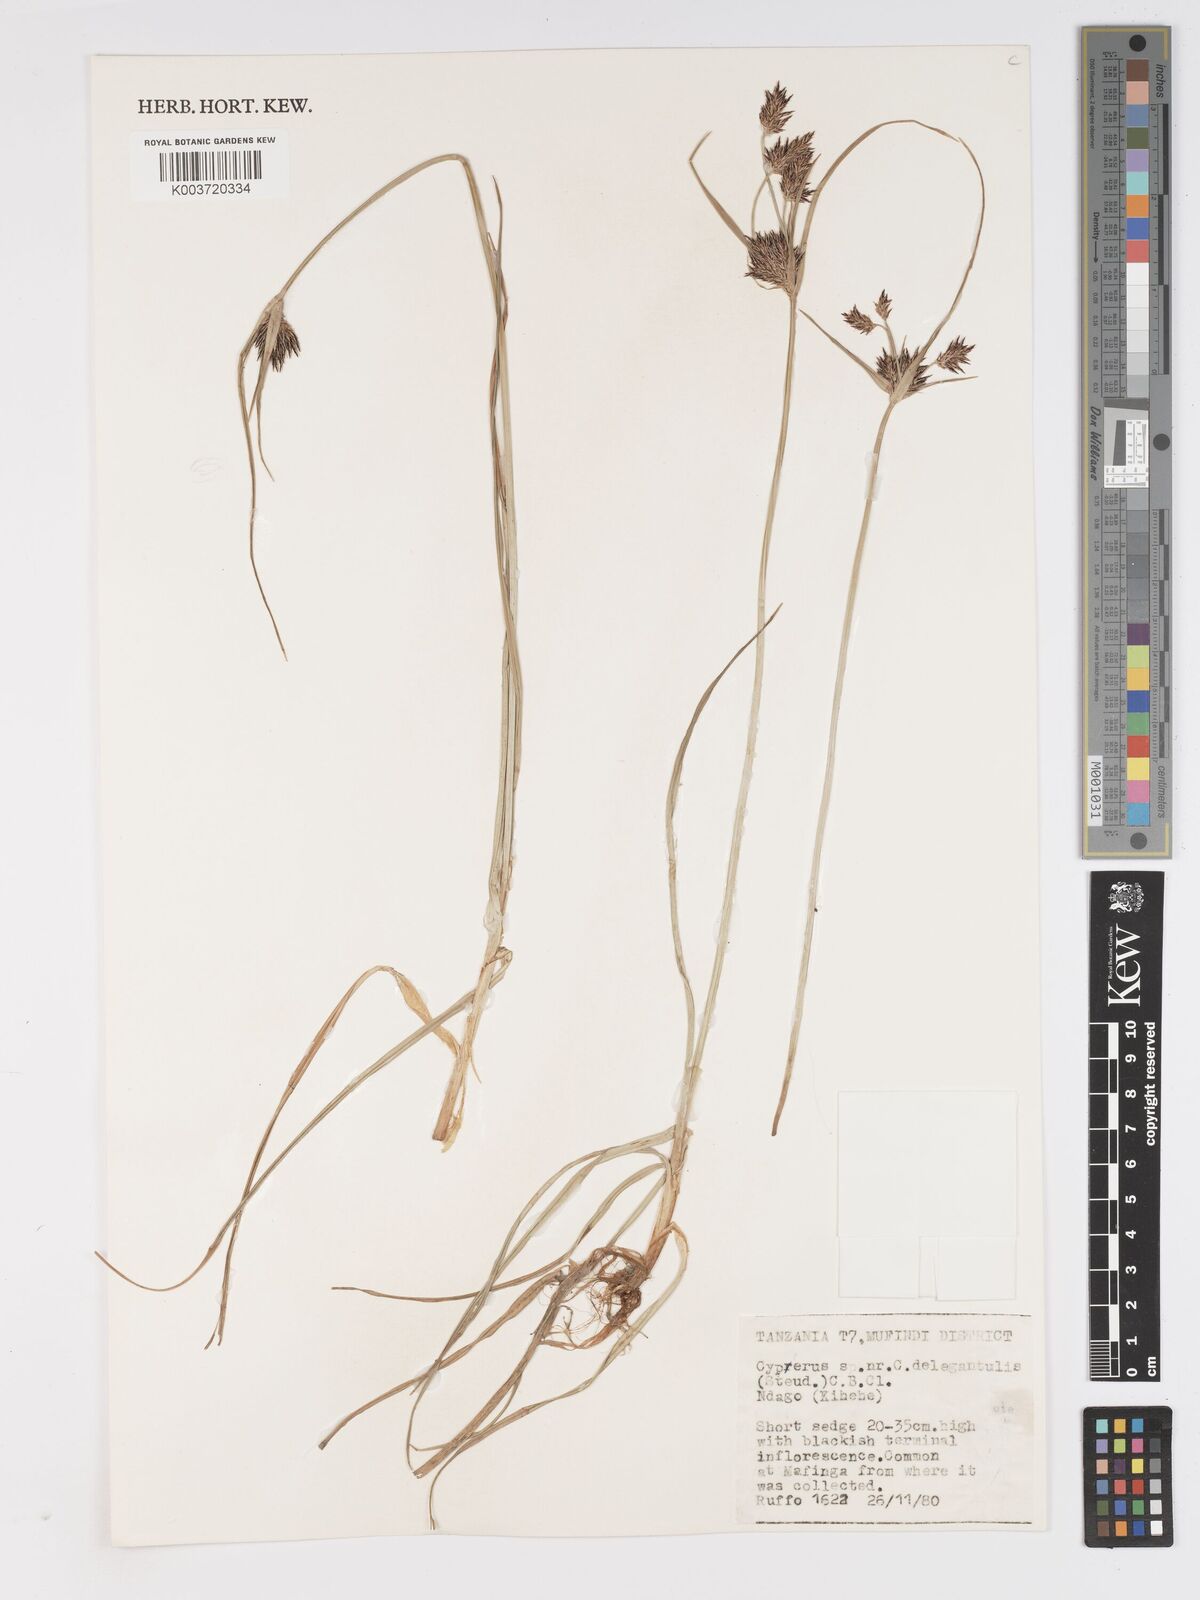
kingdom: Plantae
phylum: Tracheophyta
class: Liliopsida
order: Poales
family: Cyperaceae
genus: Cyperus
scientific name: Cyperus
